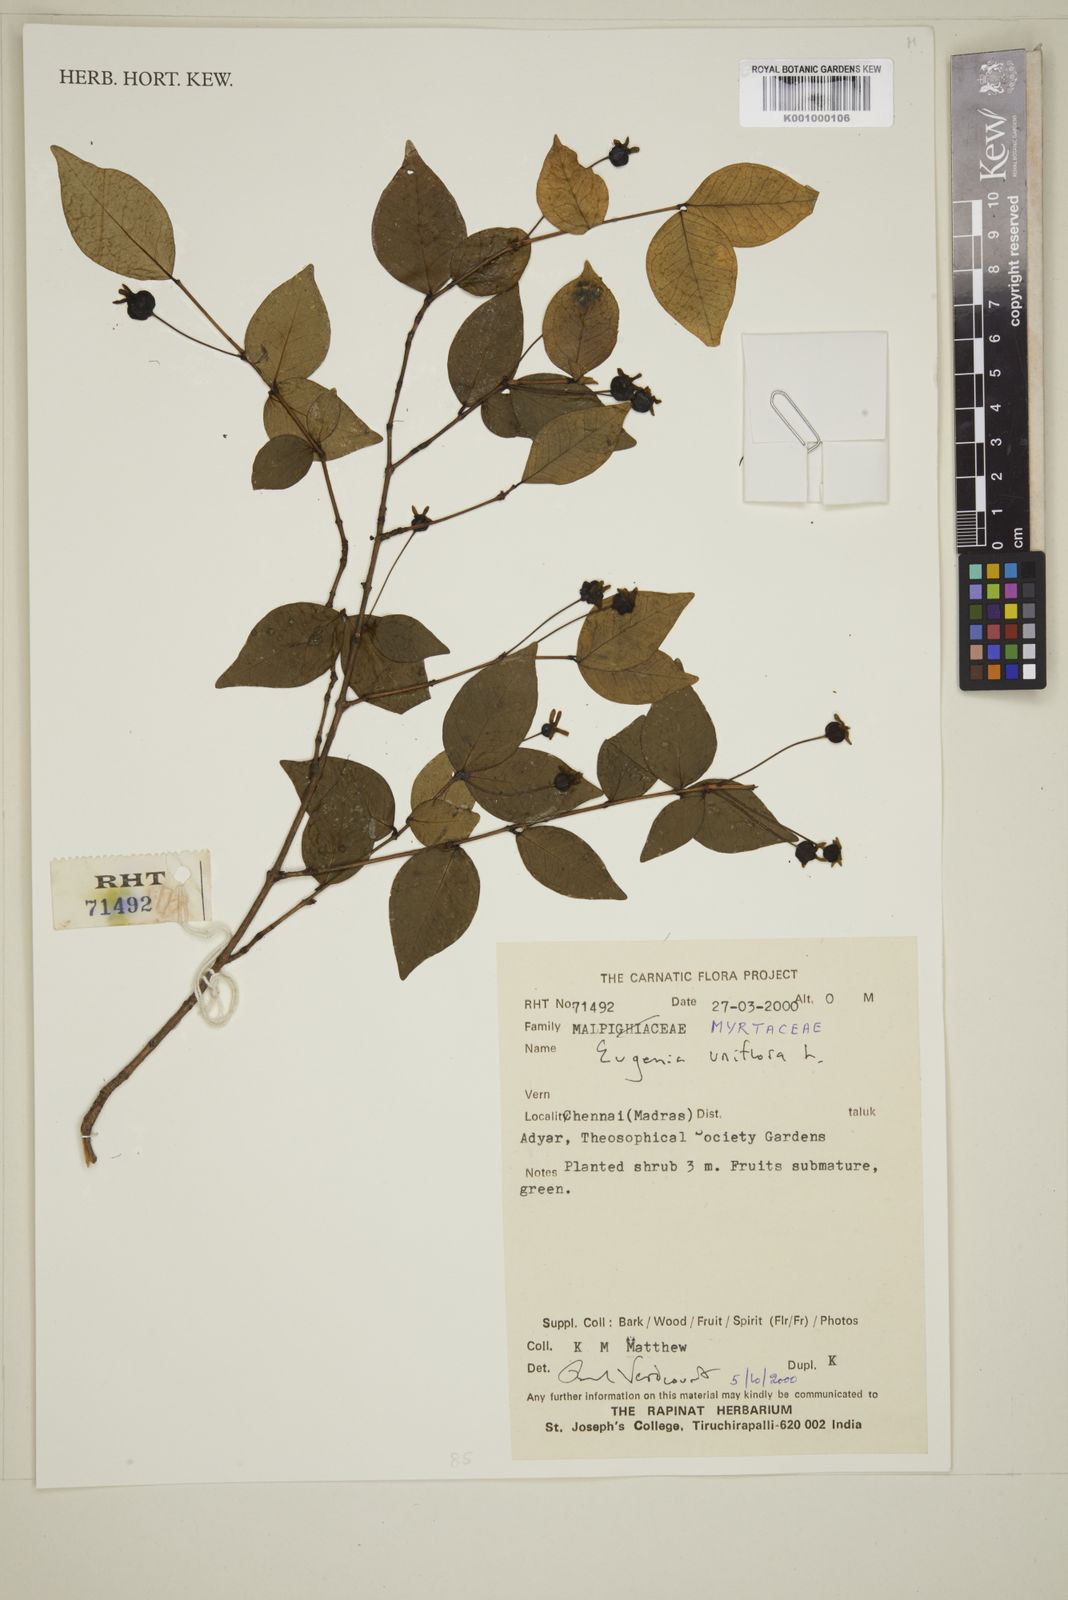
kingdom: Plantae
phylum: Tracheophyta
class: Magnoliopsida
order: Myrtales
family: Myrtaceae
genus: Eugenia
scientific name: Eugenia uniflora
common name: Surinam cherry
